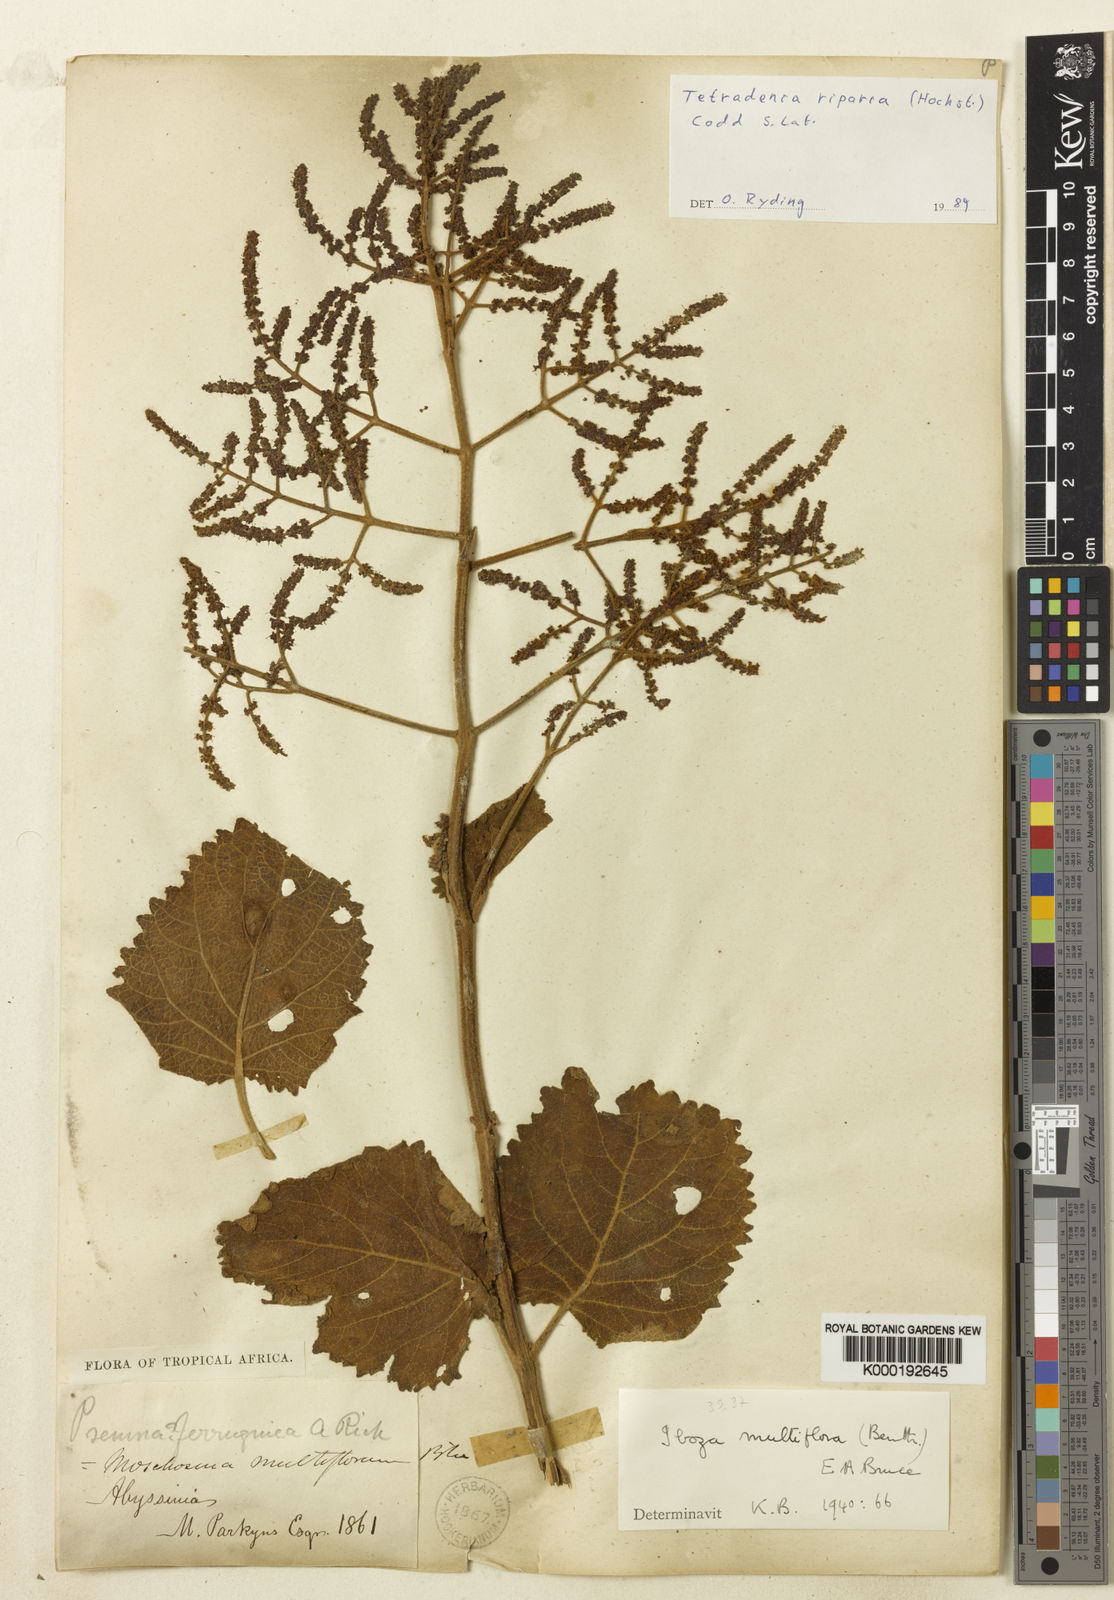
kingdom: Plantae
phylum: Tracheophyta
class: Magnoliopsida
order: Lamiales
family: Lamiaceae
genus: Tetradenia
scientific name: Tetradenia multiflora
